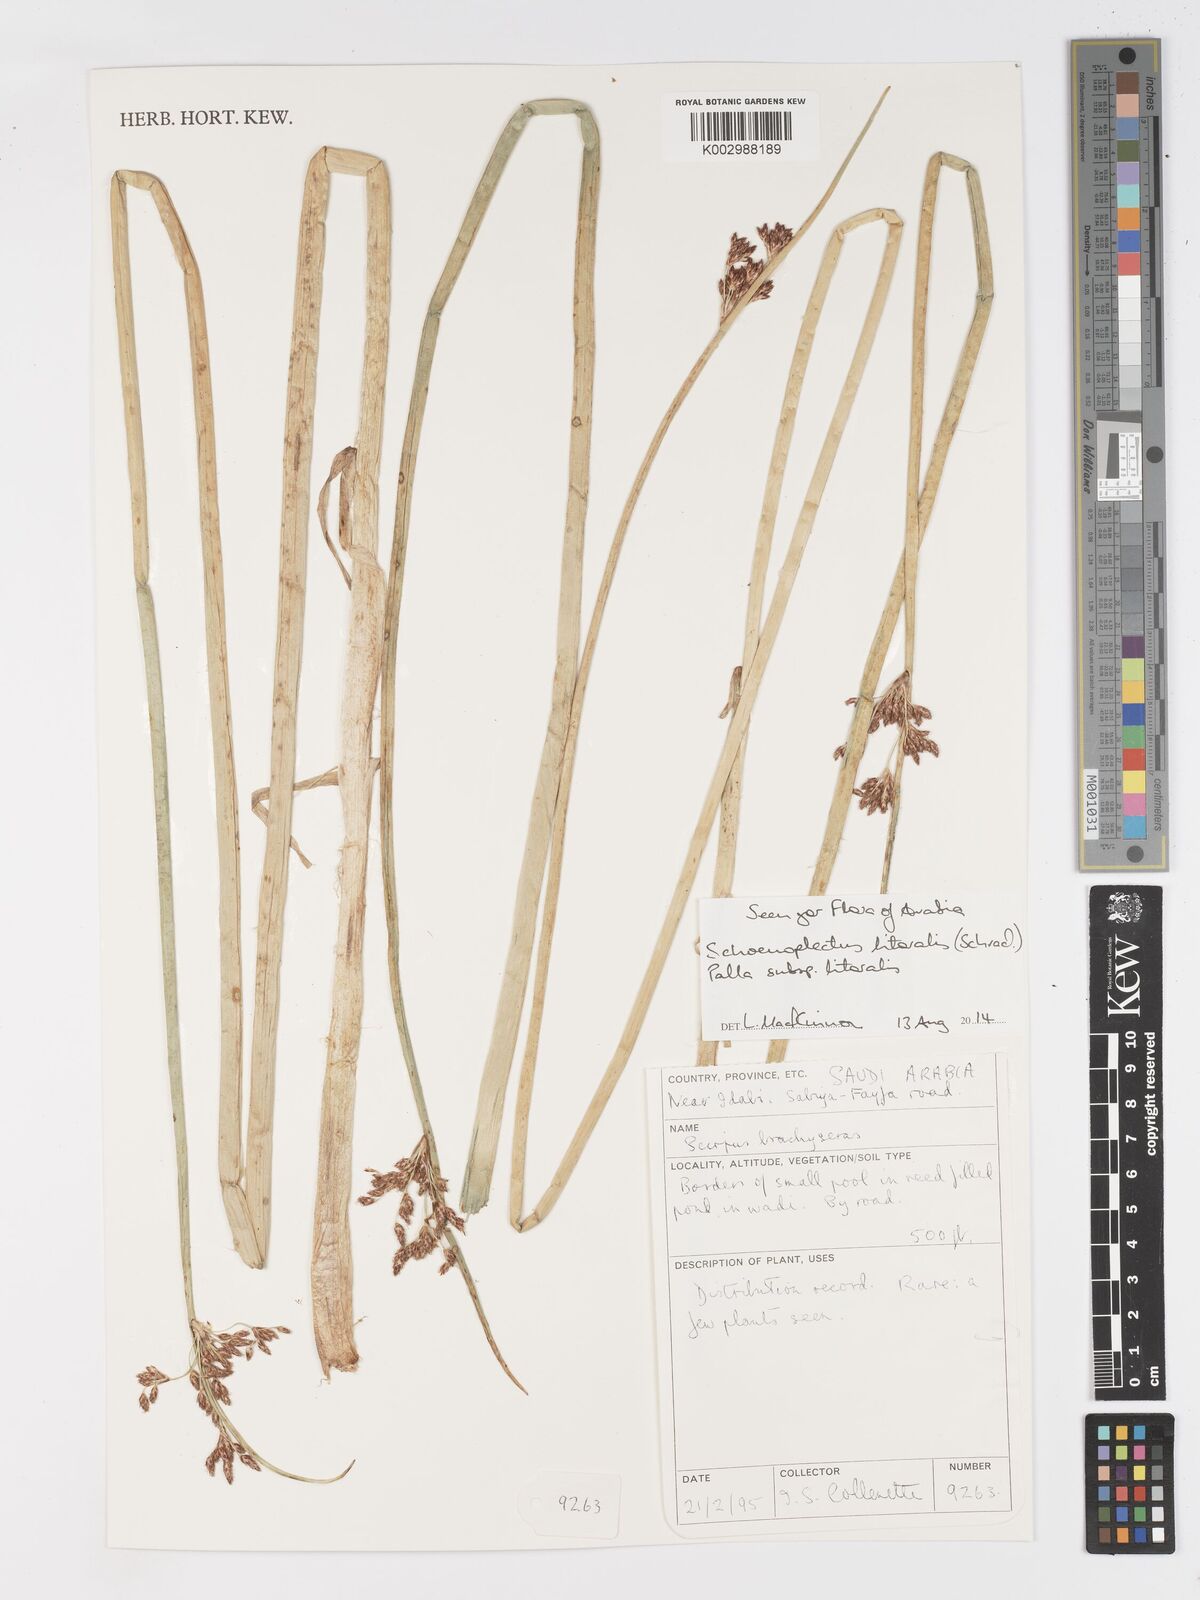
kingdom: Plantae
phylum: Tracheophyta
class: Liliopsida
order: Poales
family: Cyperaceae
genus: Schoenoplectus
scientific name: Schoenoplectus litoralis
